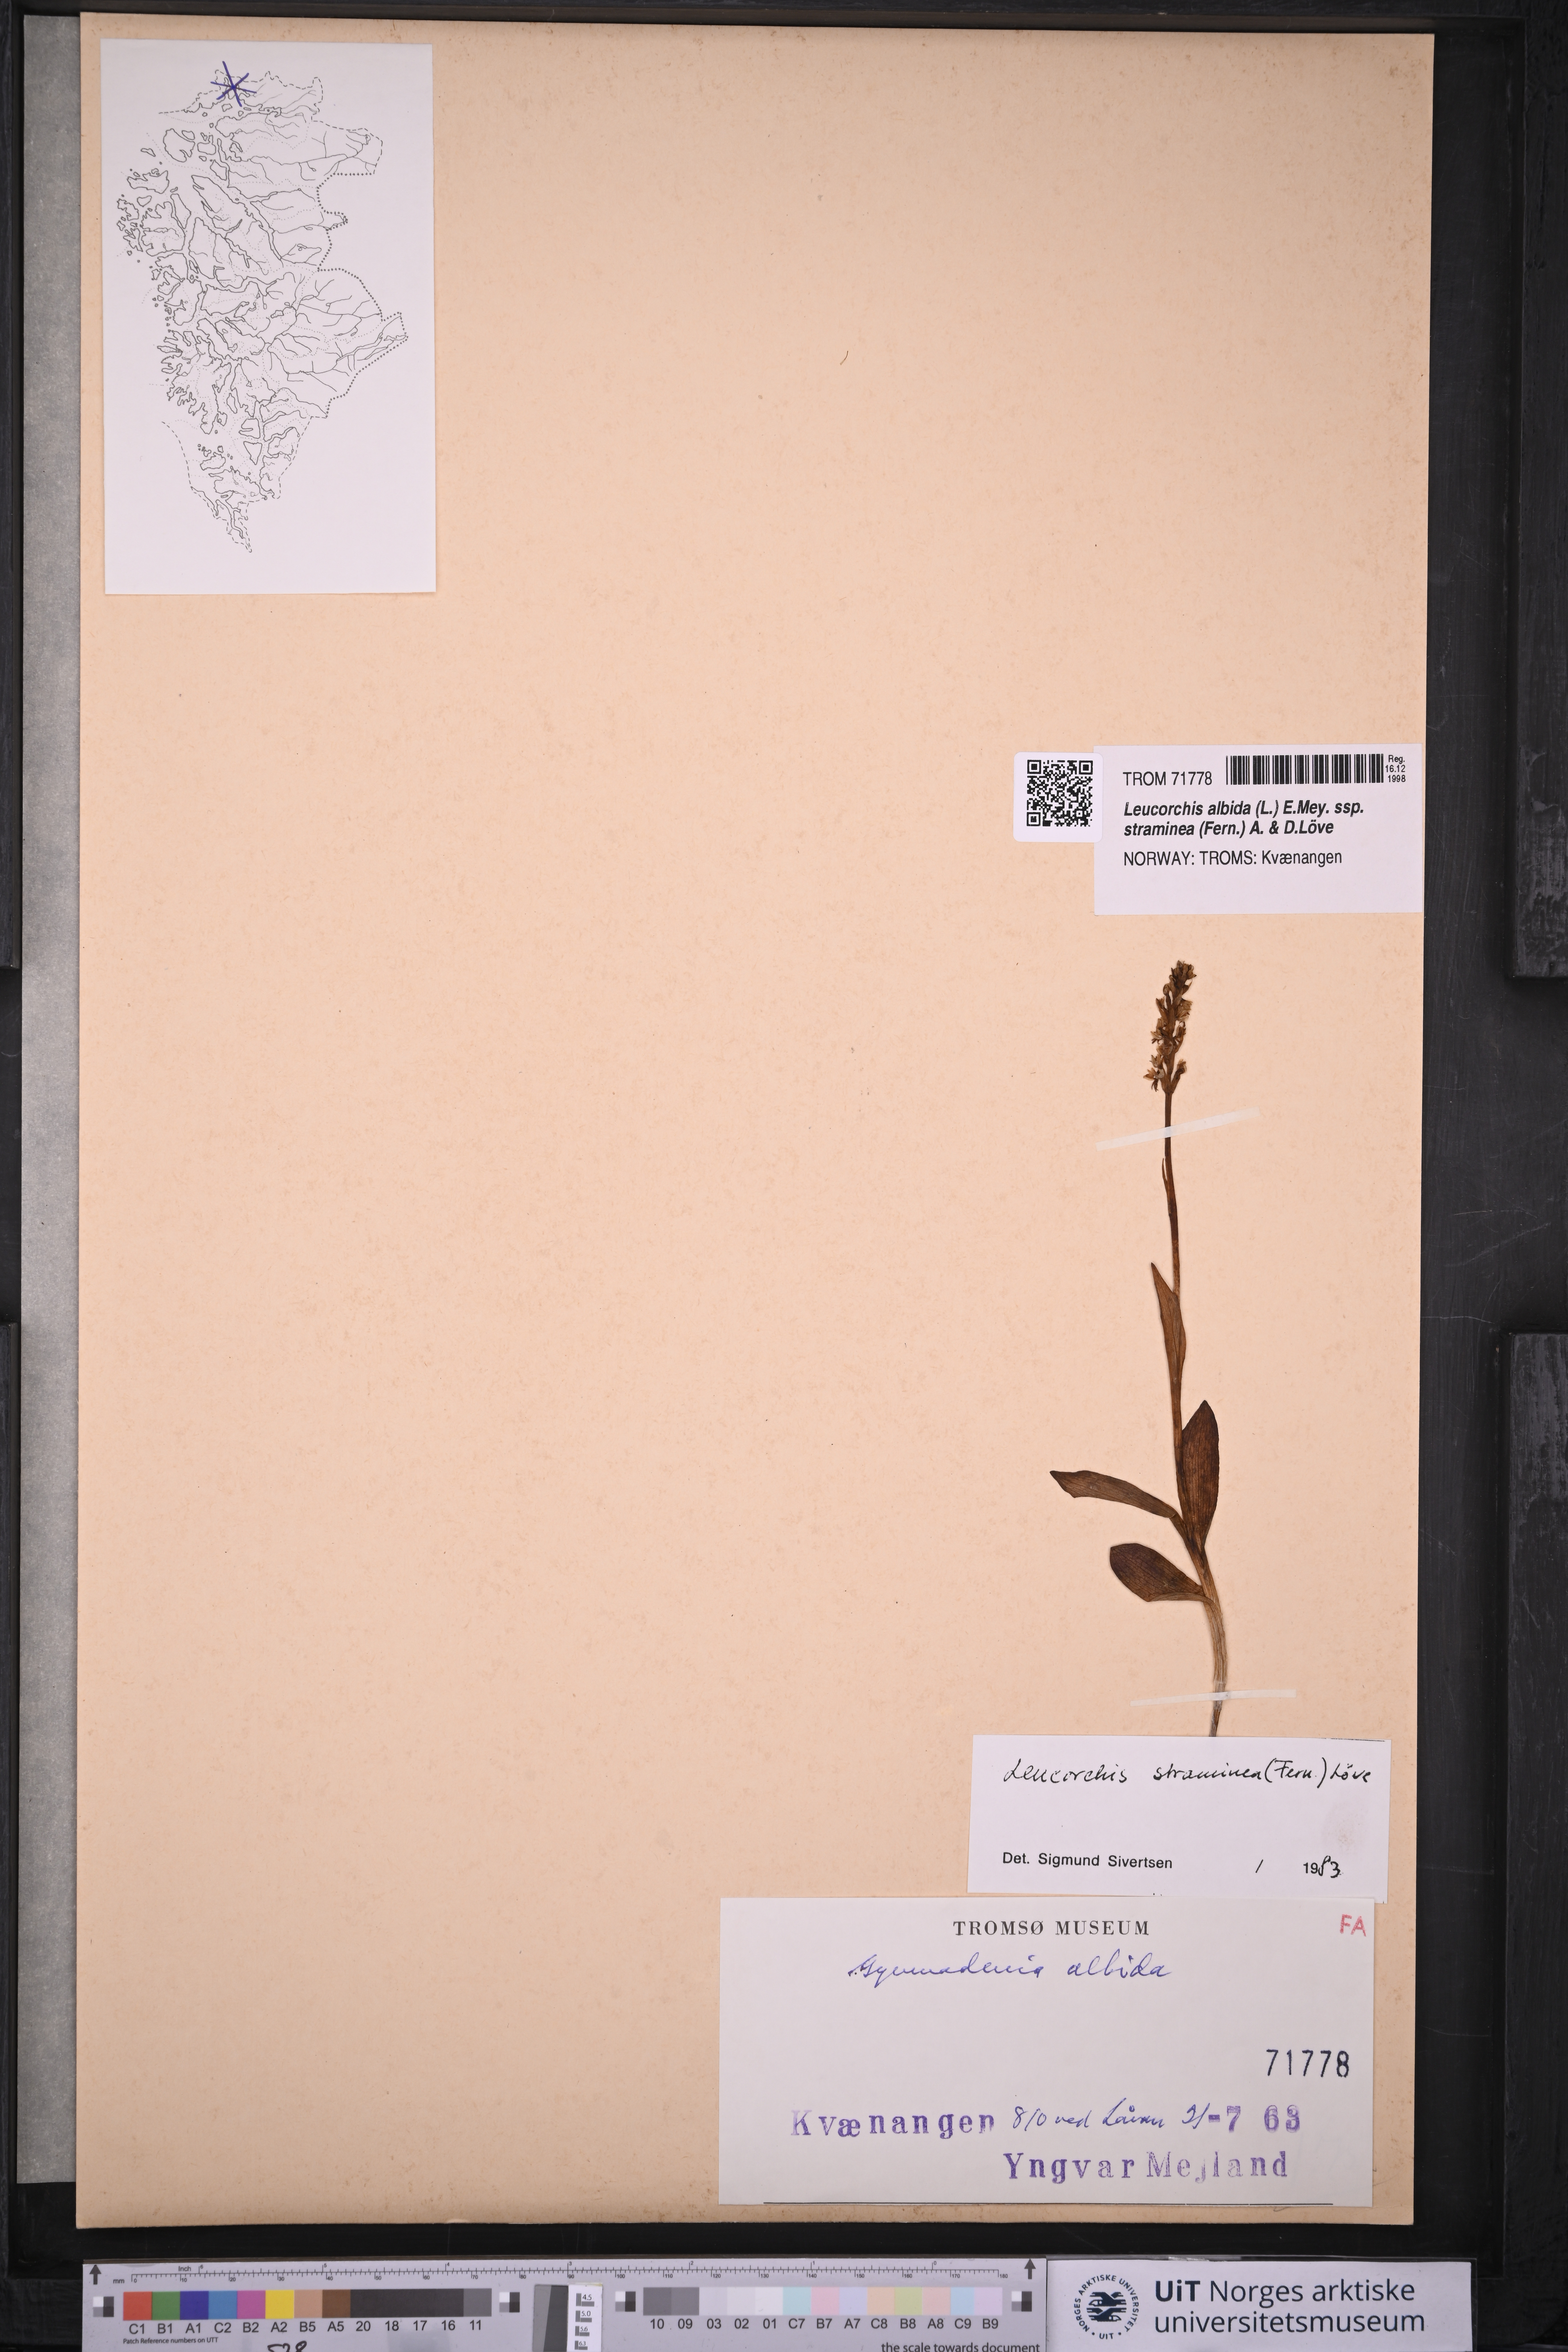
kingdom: Plantae
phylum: Tracheophyta
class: Liliopsida
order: Asparagales
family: Orchidaceae
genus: Pseudorchis
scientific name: Pseudorchis straminea
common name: Vanilla-scented bog orchid
